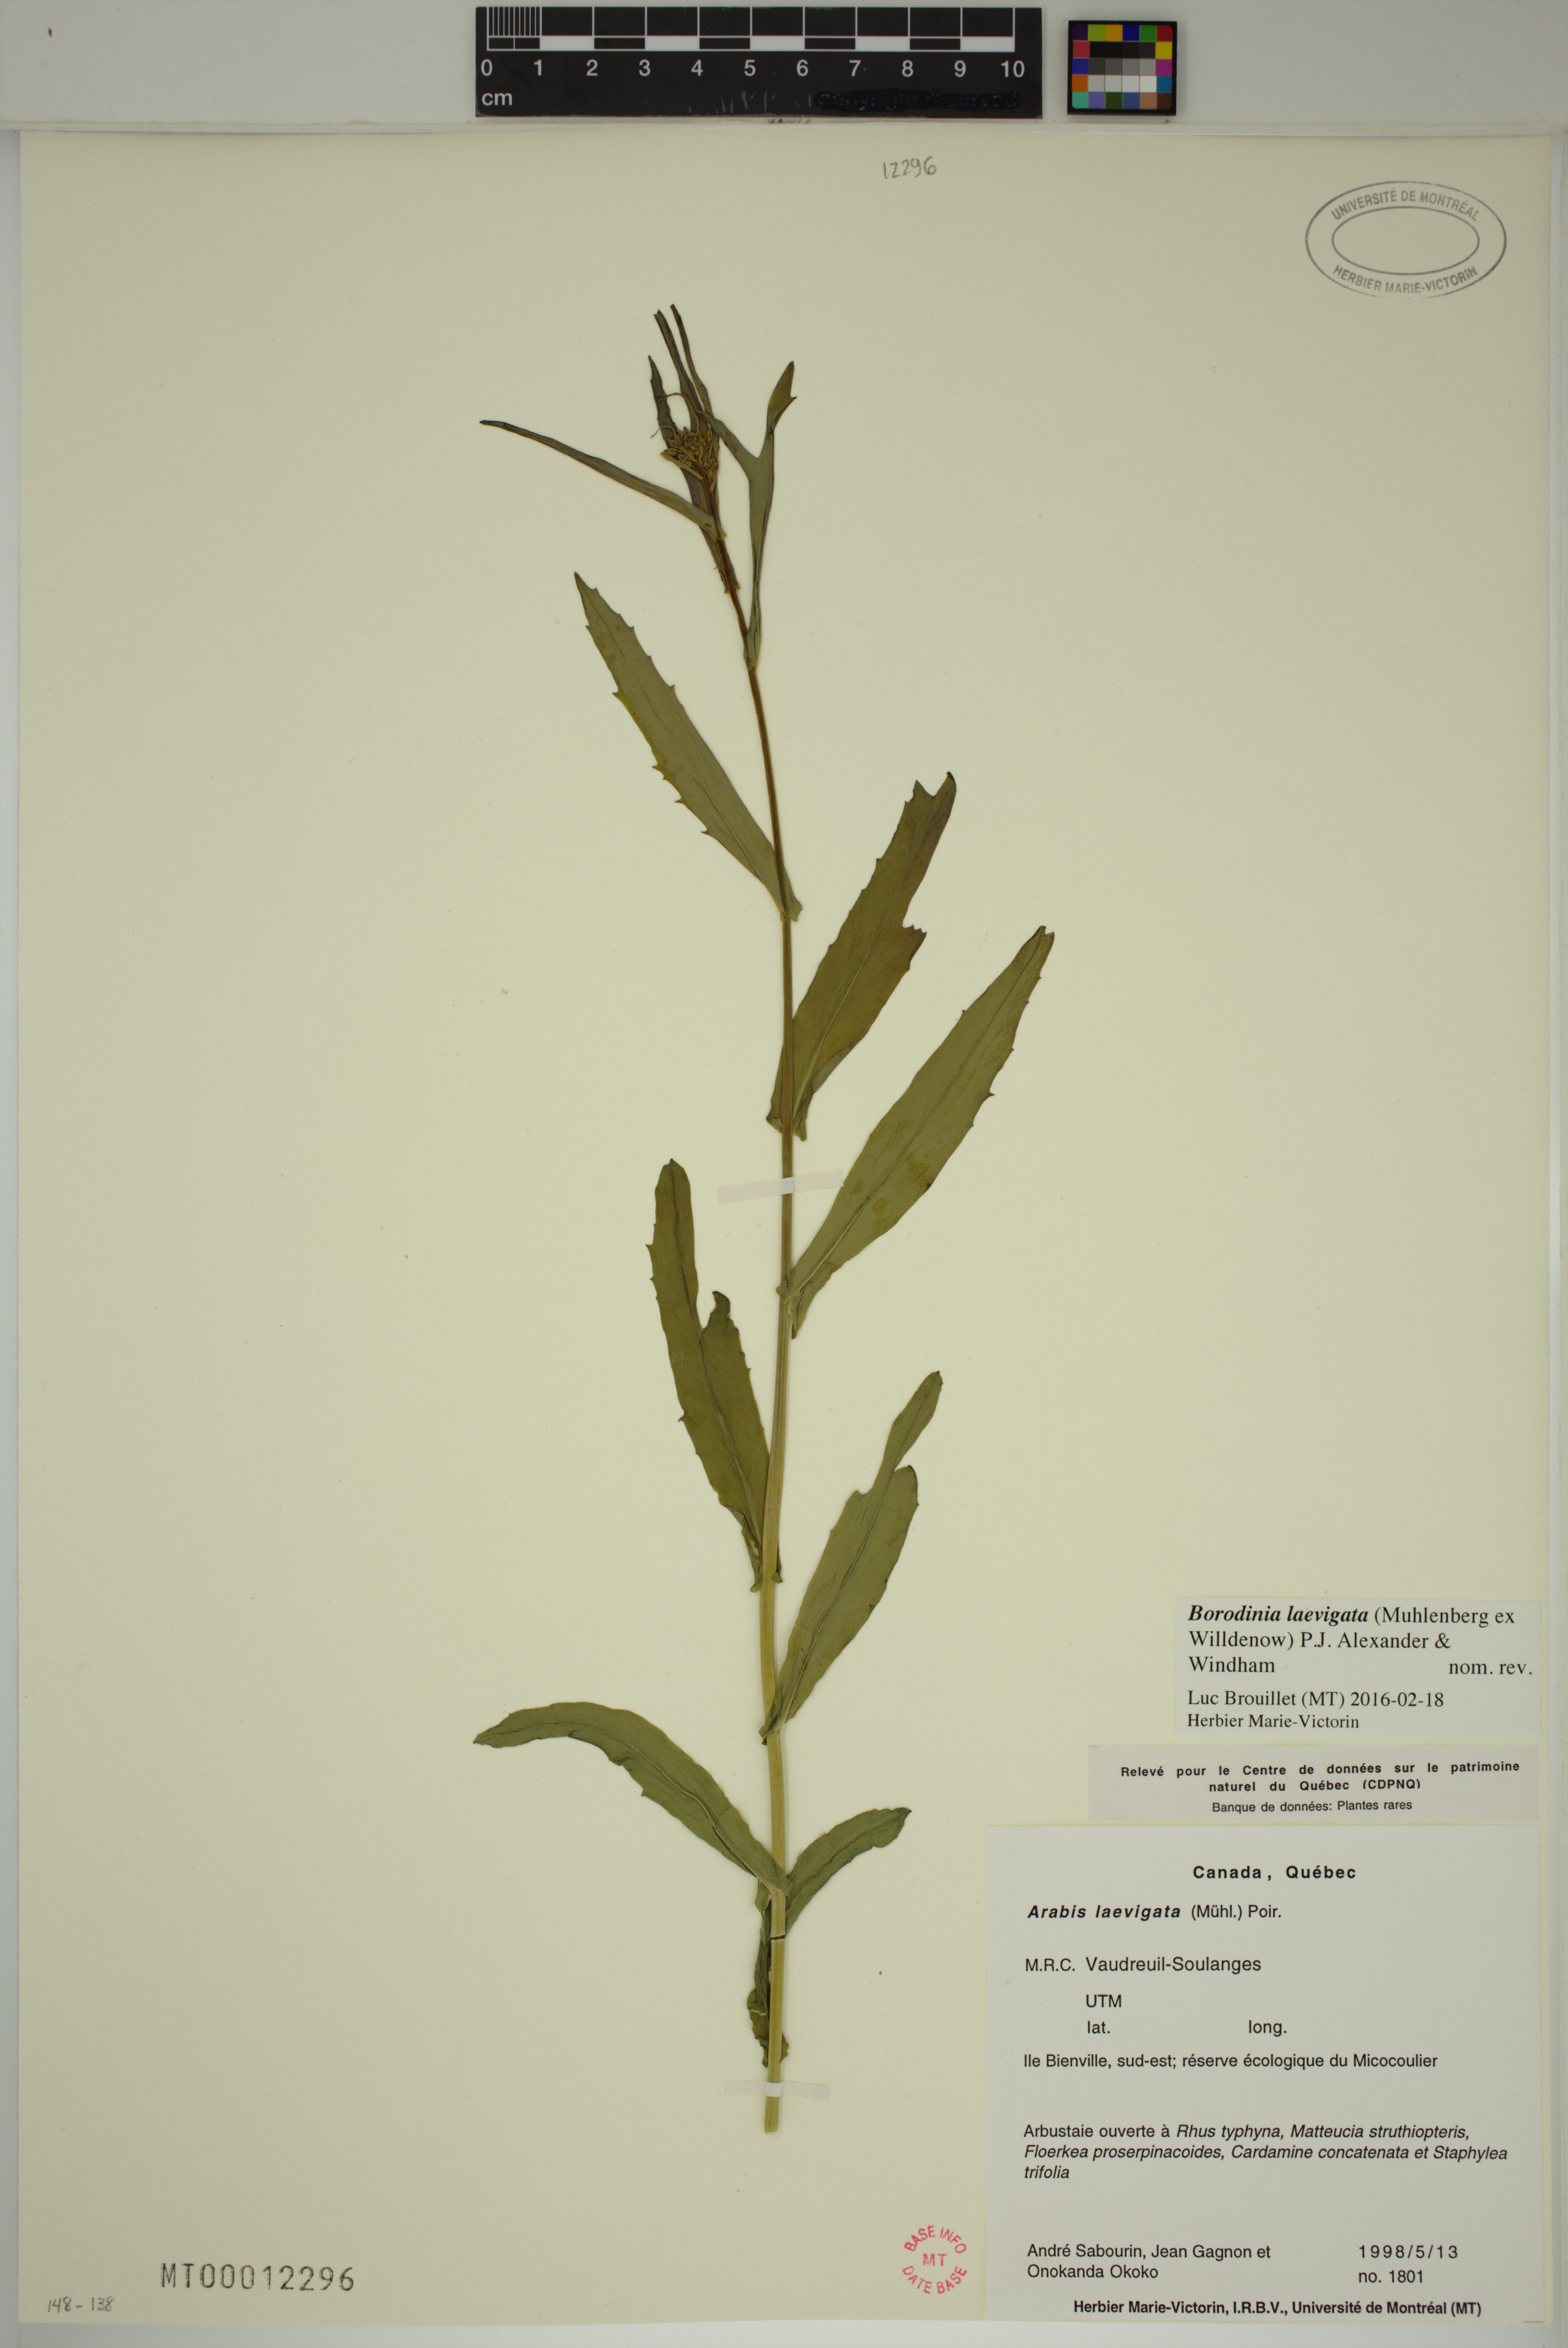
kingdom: Plantae
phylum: Tracheophyta
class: Magnoliopsida
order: Brassicales
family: Brassicaceae
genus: Borodinia
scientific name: Borodinia laevigata
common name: Smooth rockcress
